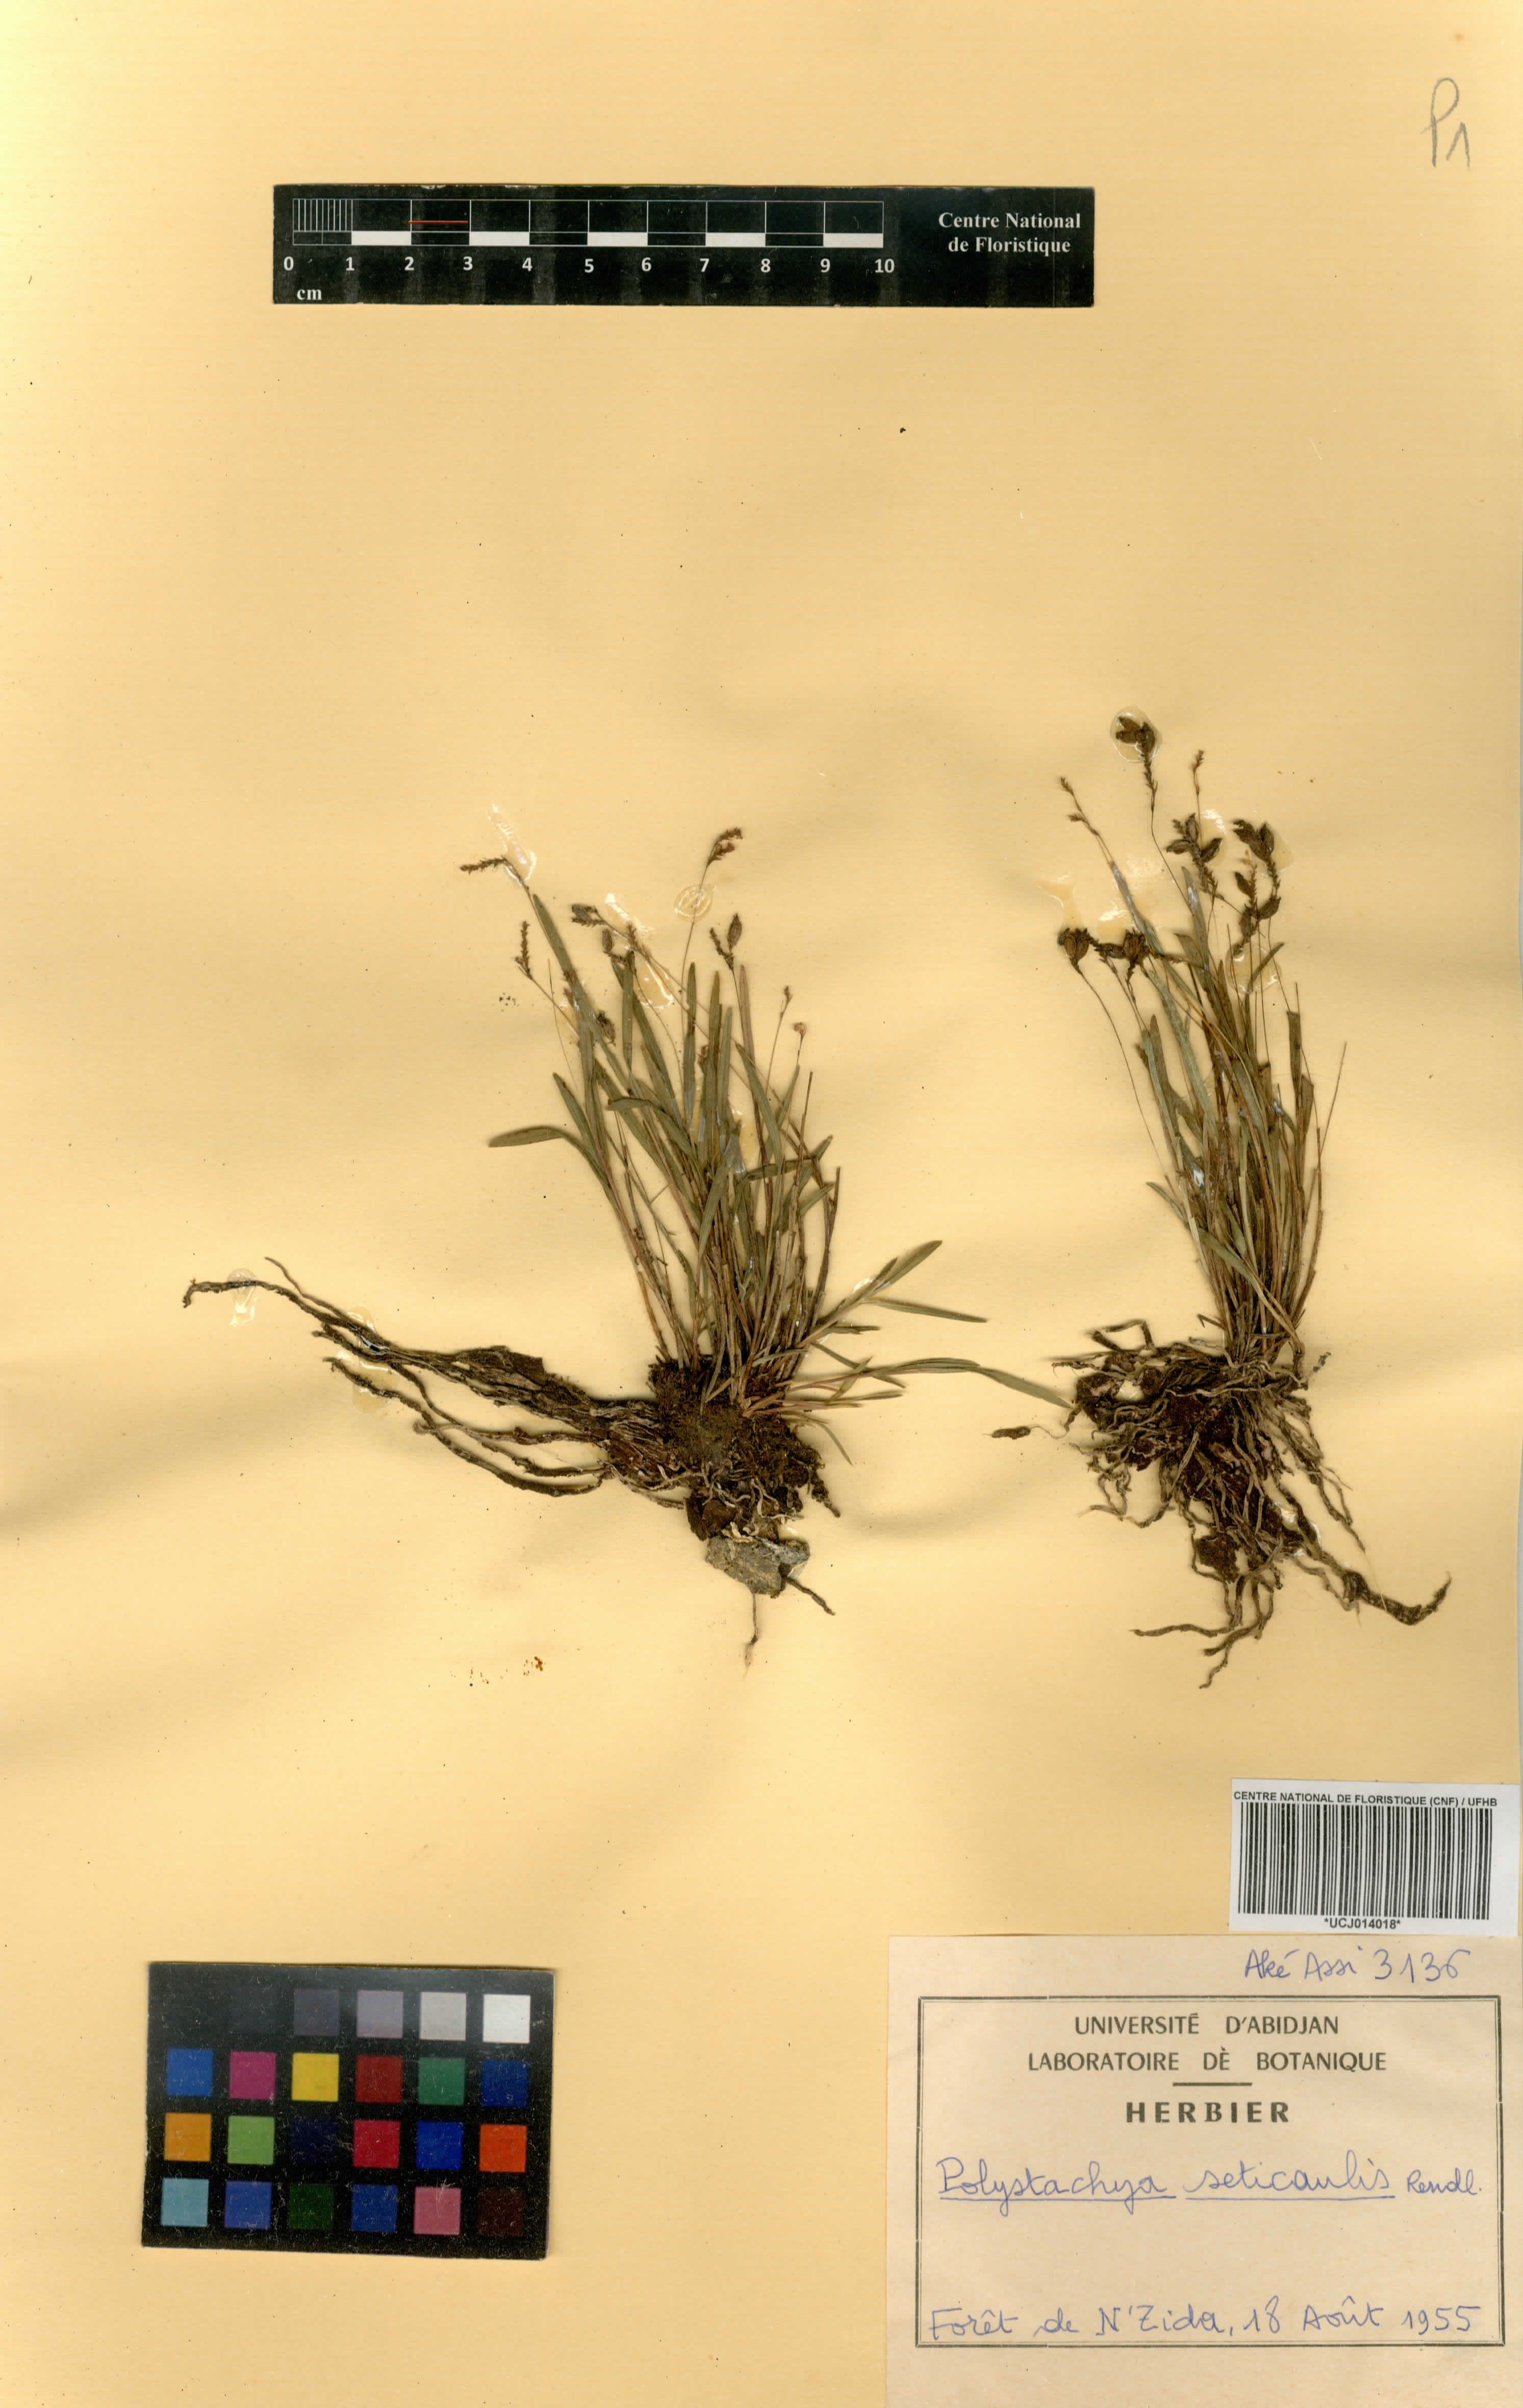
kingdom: Plantae
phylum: Tracheophyta
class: Liliopsida
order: Asparagales
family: Orchidaceae
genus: Polystachya
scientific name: Polystachya seticaulis
